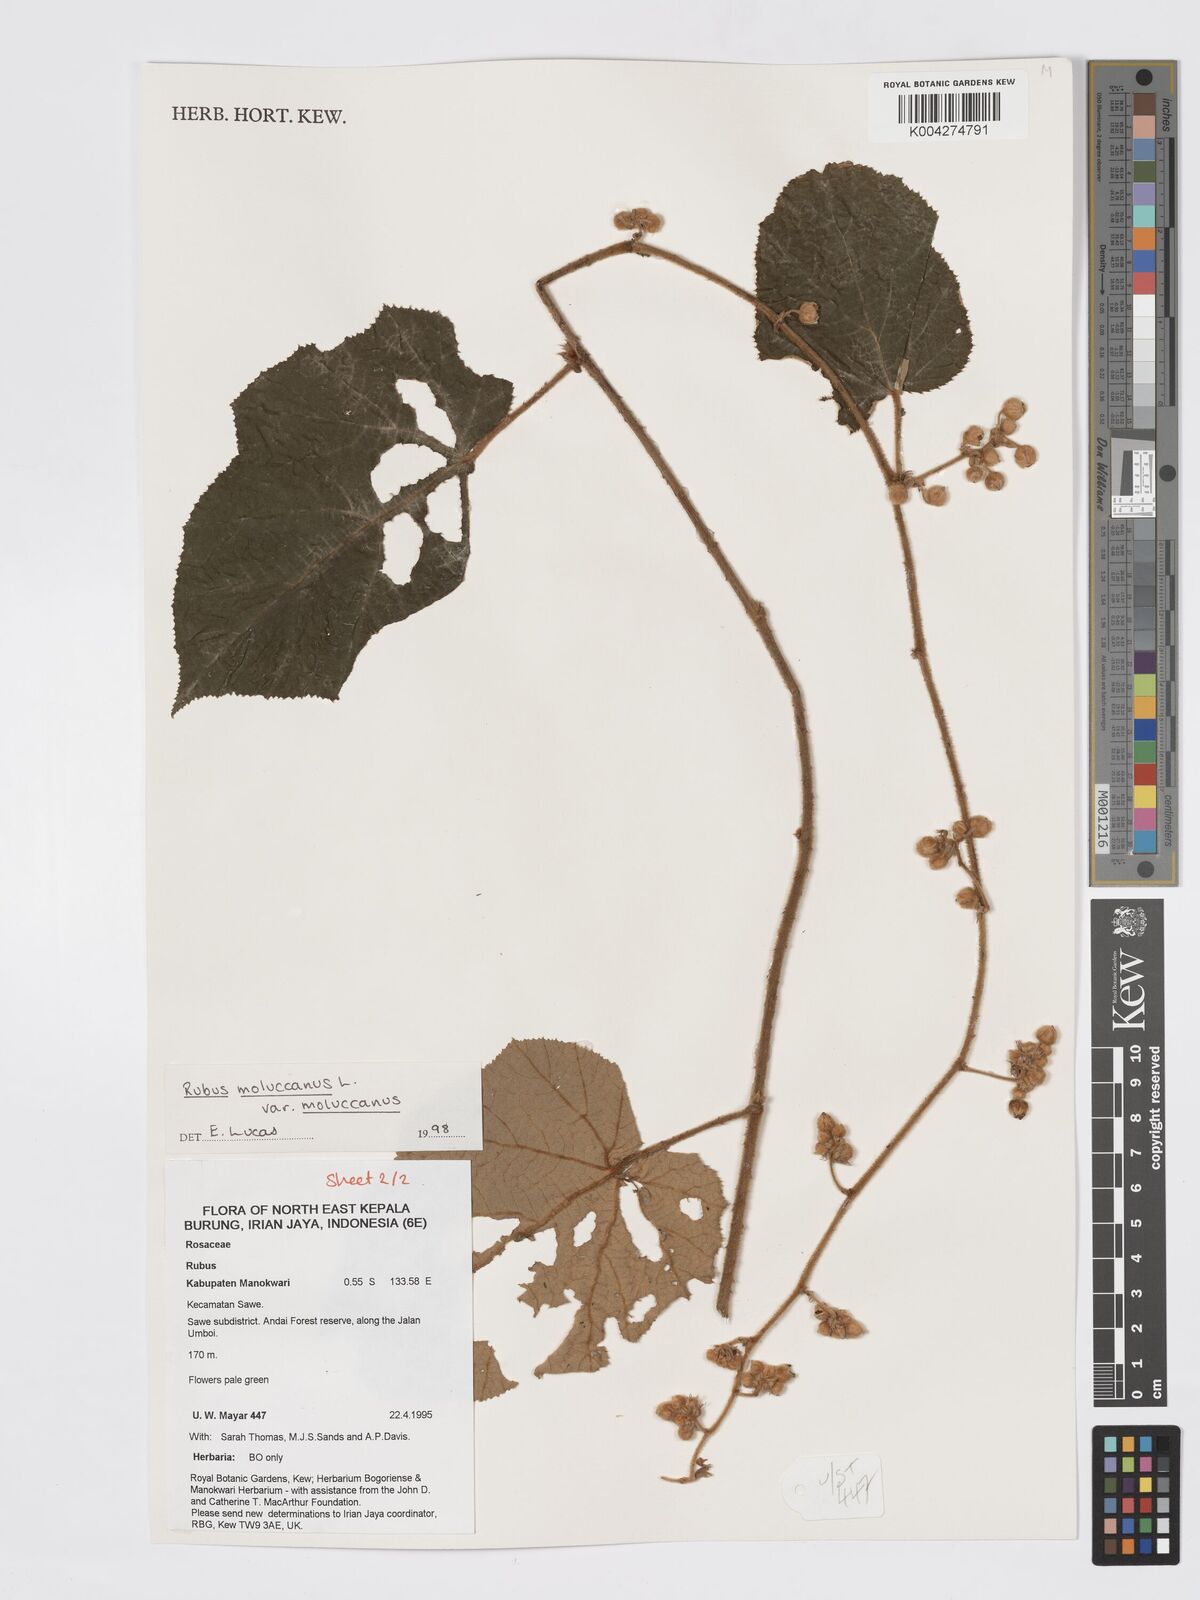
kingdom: Plantae
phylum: Tracheophyta
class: Magnoliopsida
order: Rosales
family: Rosaceae
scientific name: Rosaceae
